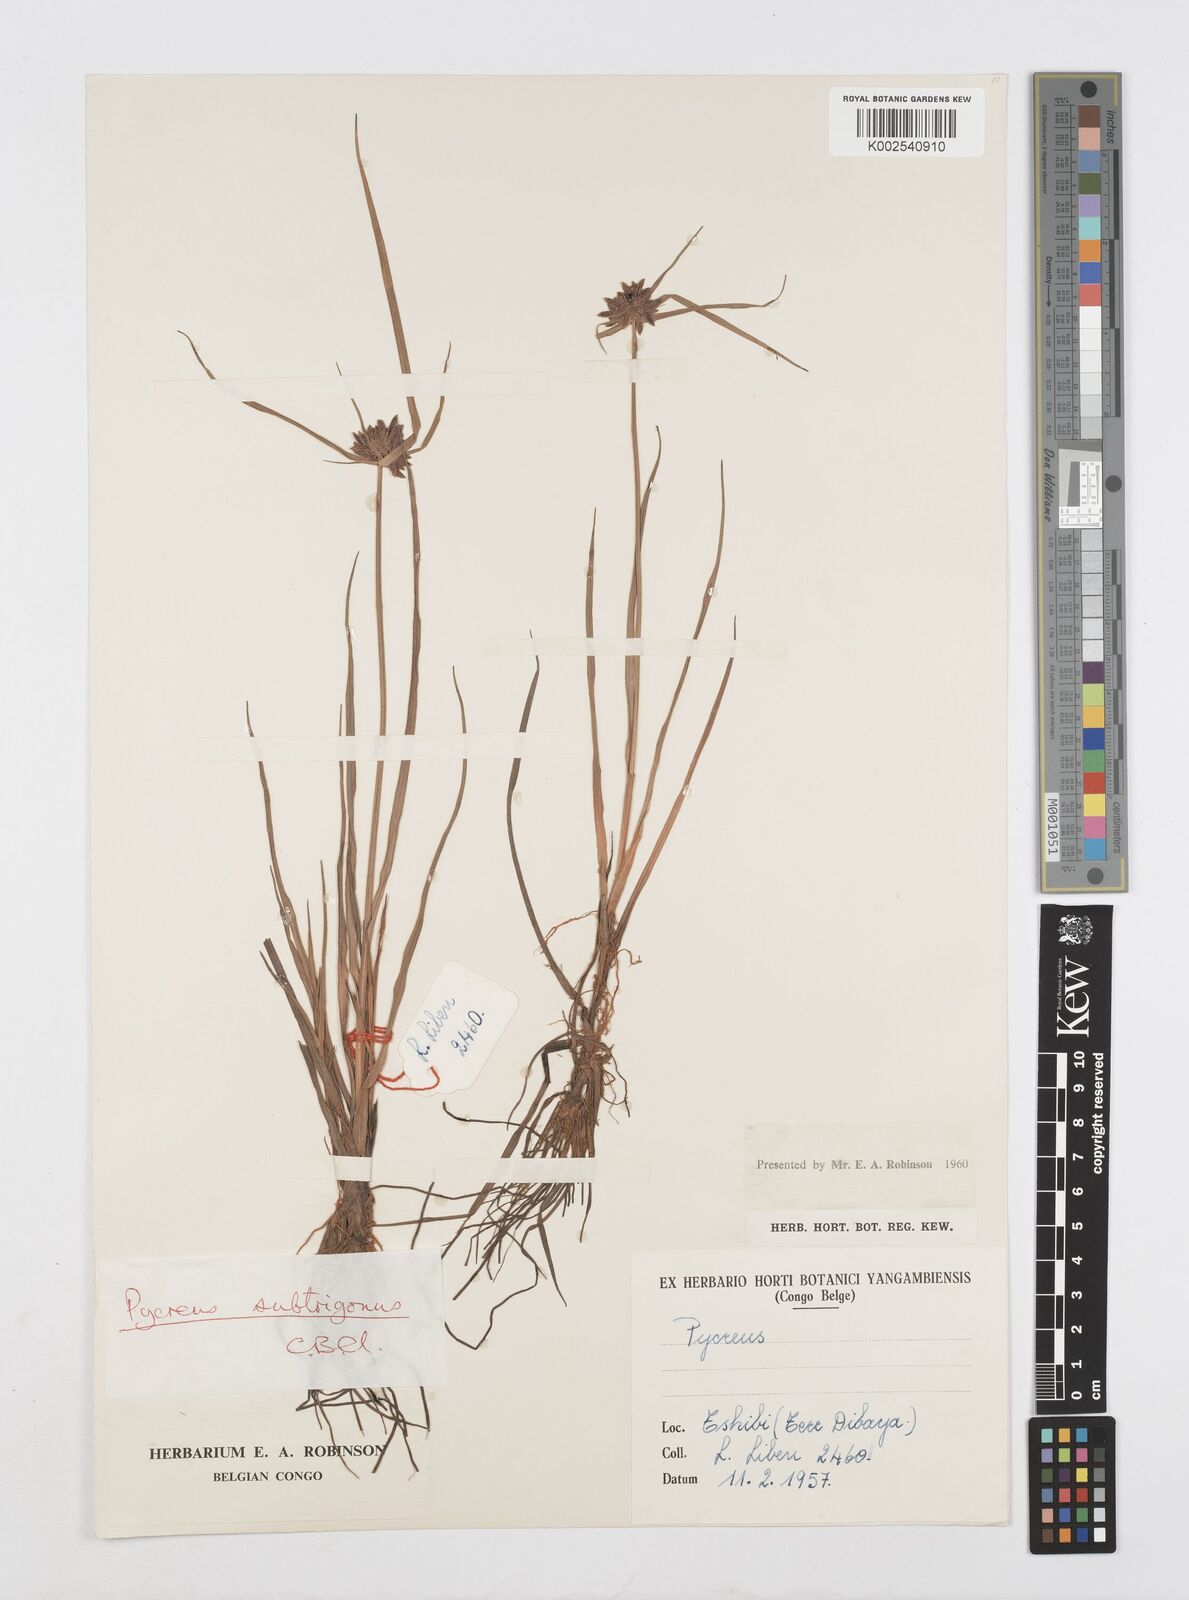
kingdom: Plantae
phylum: Tracheophyta
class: Liliopsida
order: Poales
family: Cyperaceae
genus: Cyperus
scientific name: Cyperus subtrigonus
